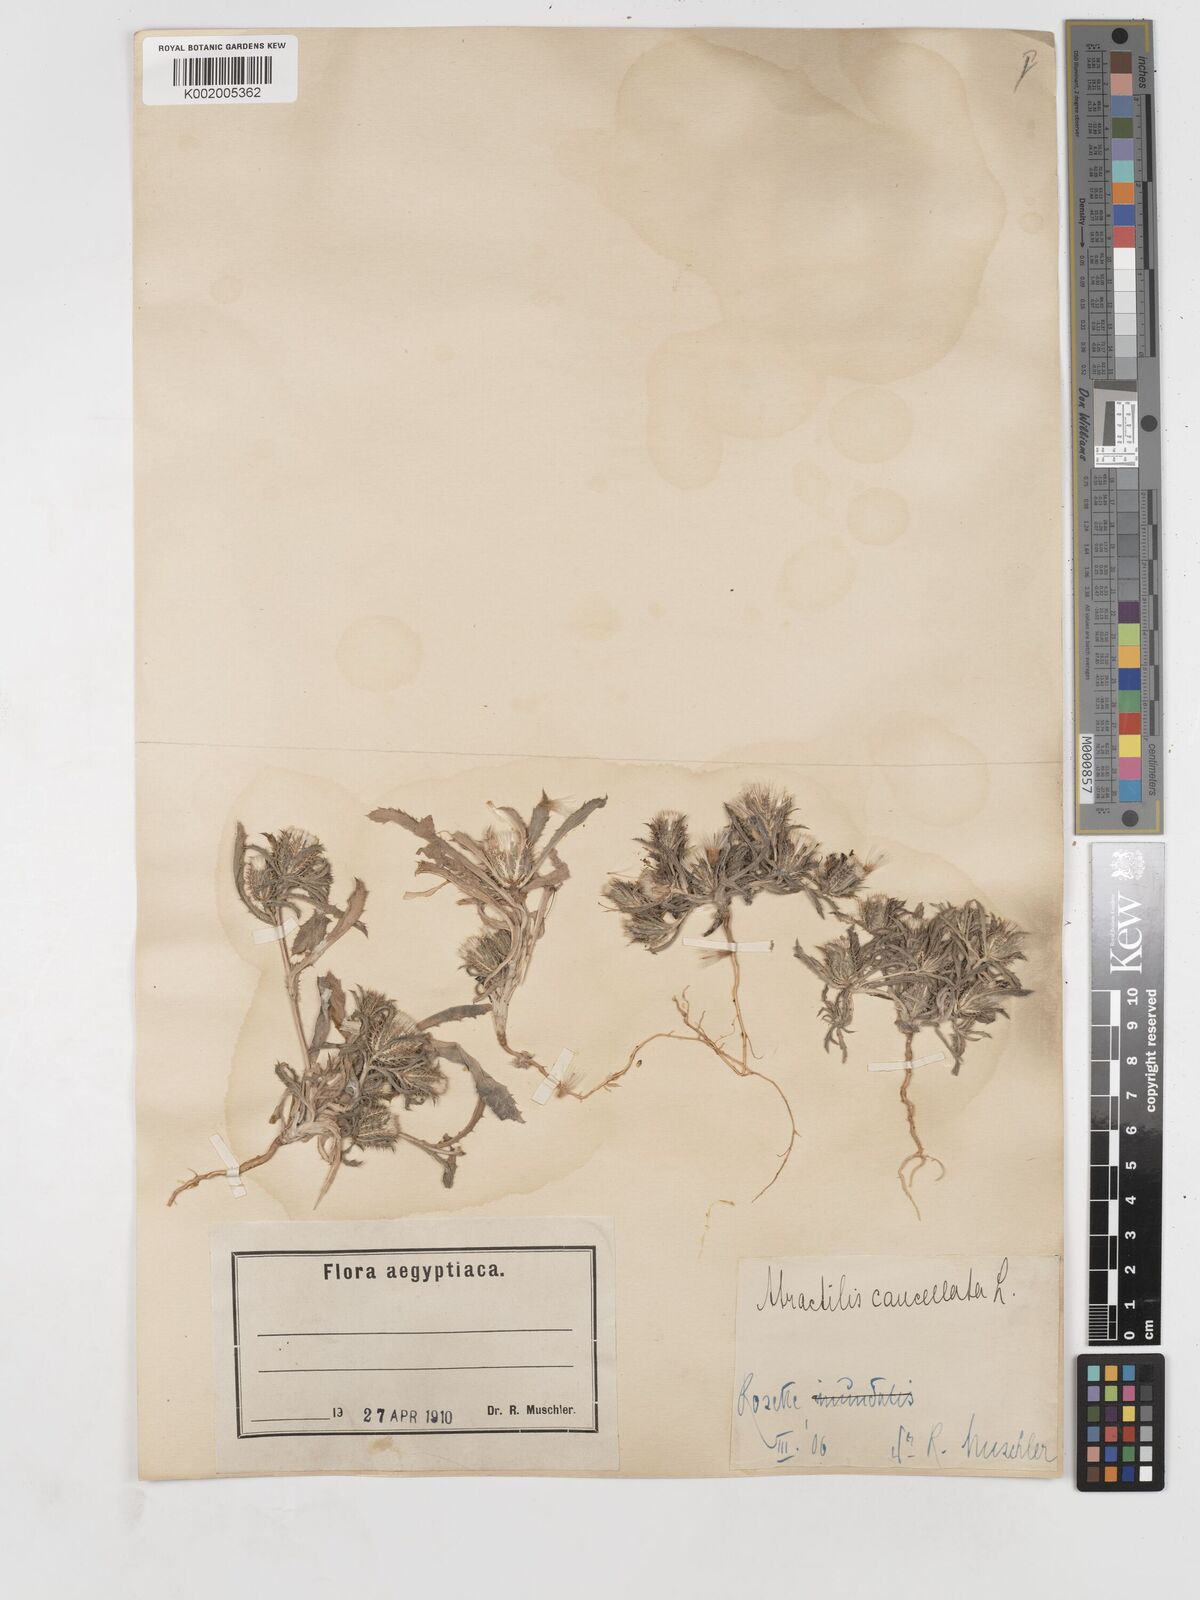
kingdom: Plantae
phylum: Tracheophyta
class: Magnoliopsida
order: Asterales
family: Asteraceae
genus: Atractylis
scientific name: Atractylis cancellata
